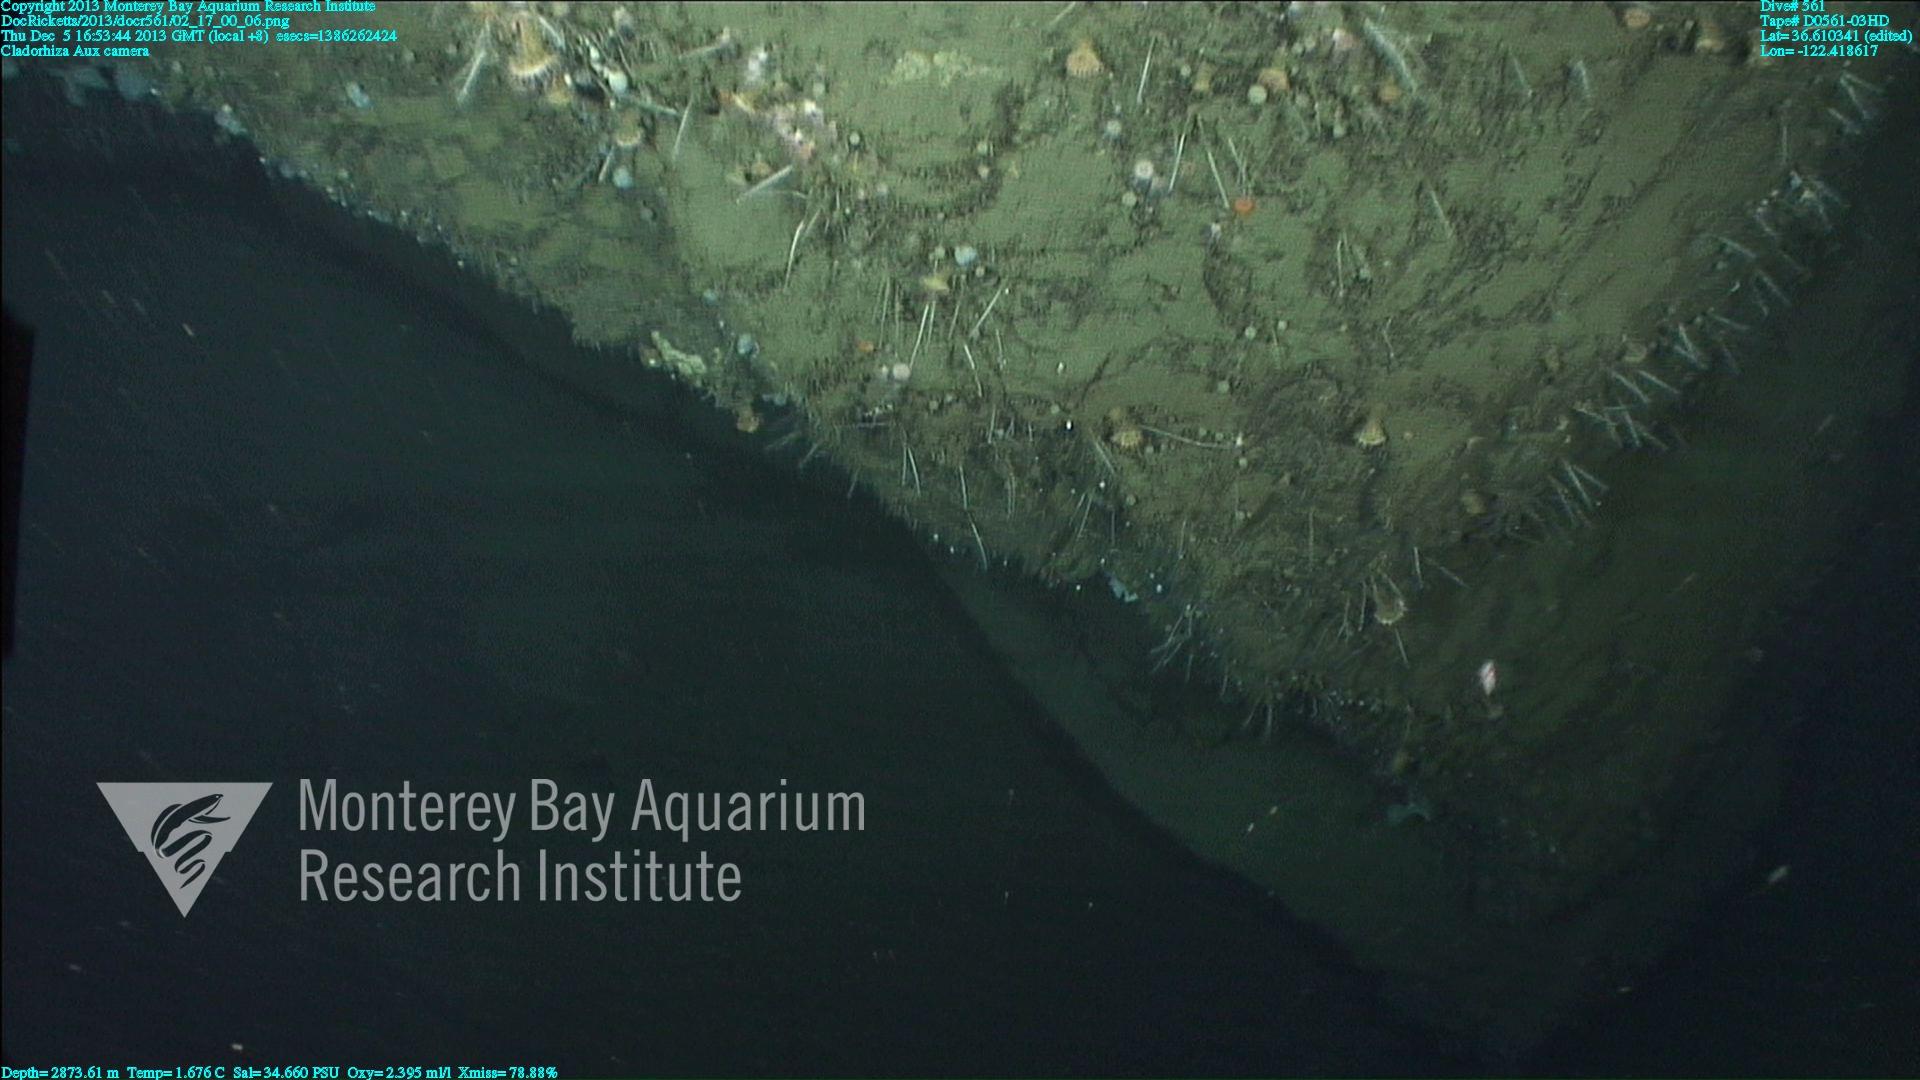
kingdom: Animalia
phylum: Porifera
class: Demospongiae
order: Poecilosclerida
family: Cladorhizidae
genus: Cladorhiza
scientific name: Cladorhiza
